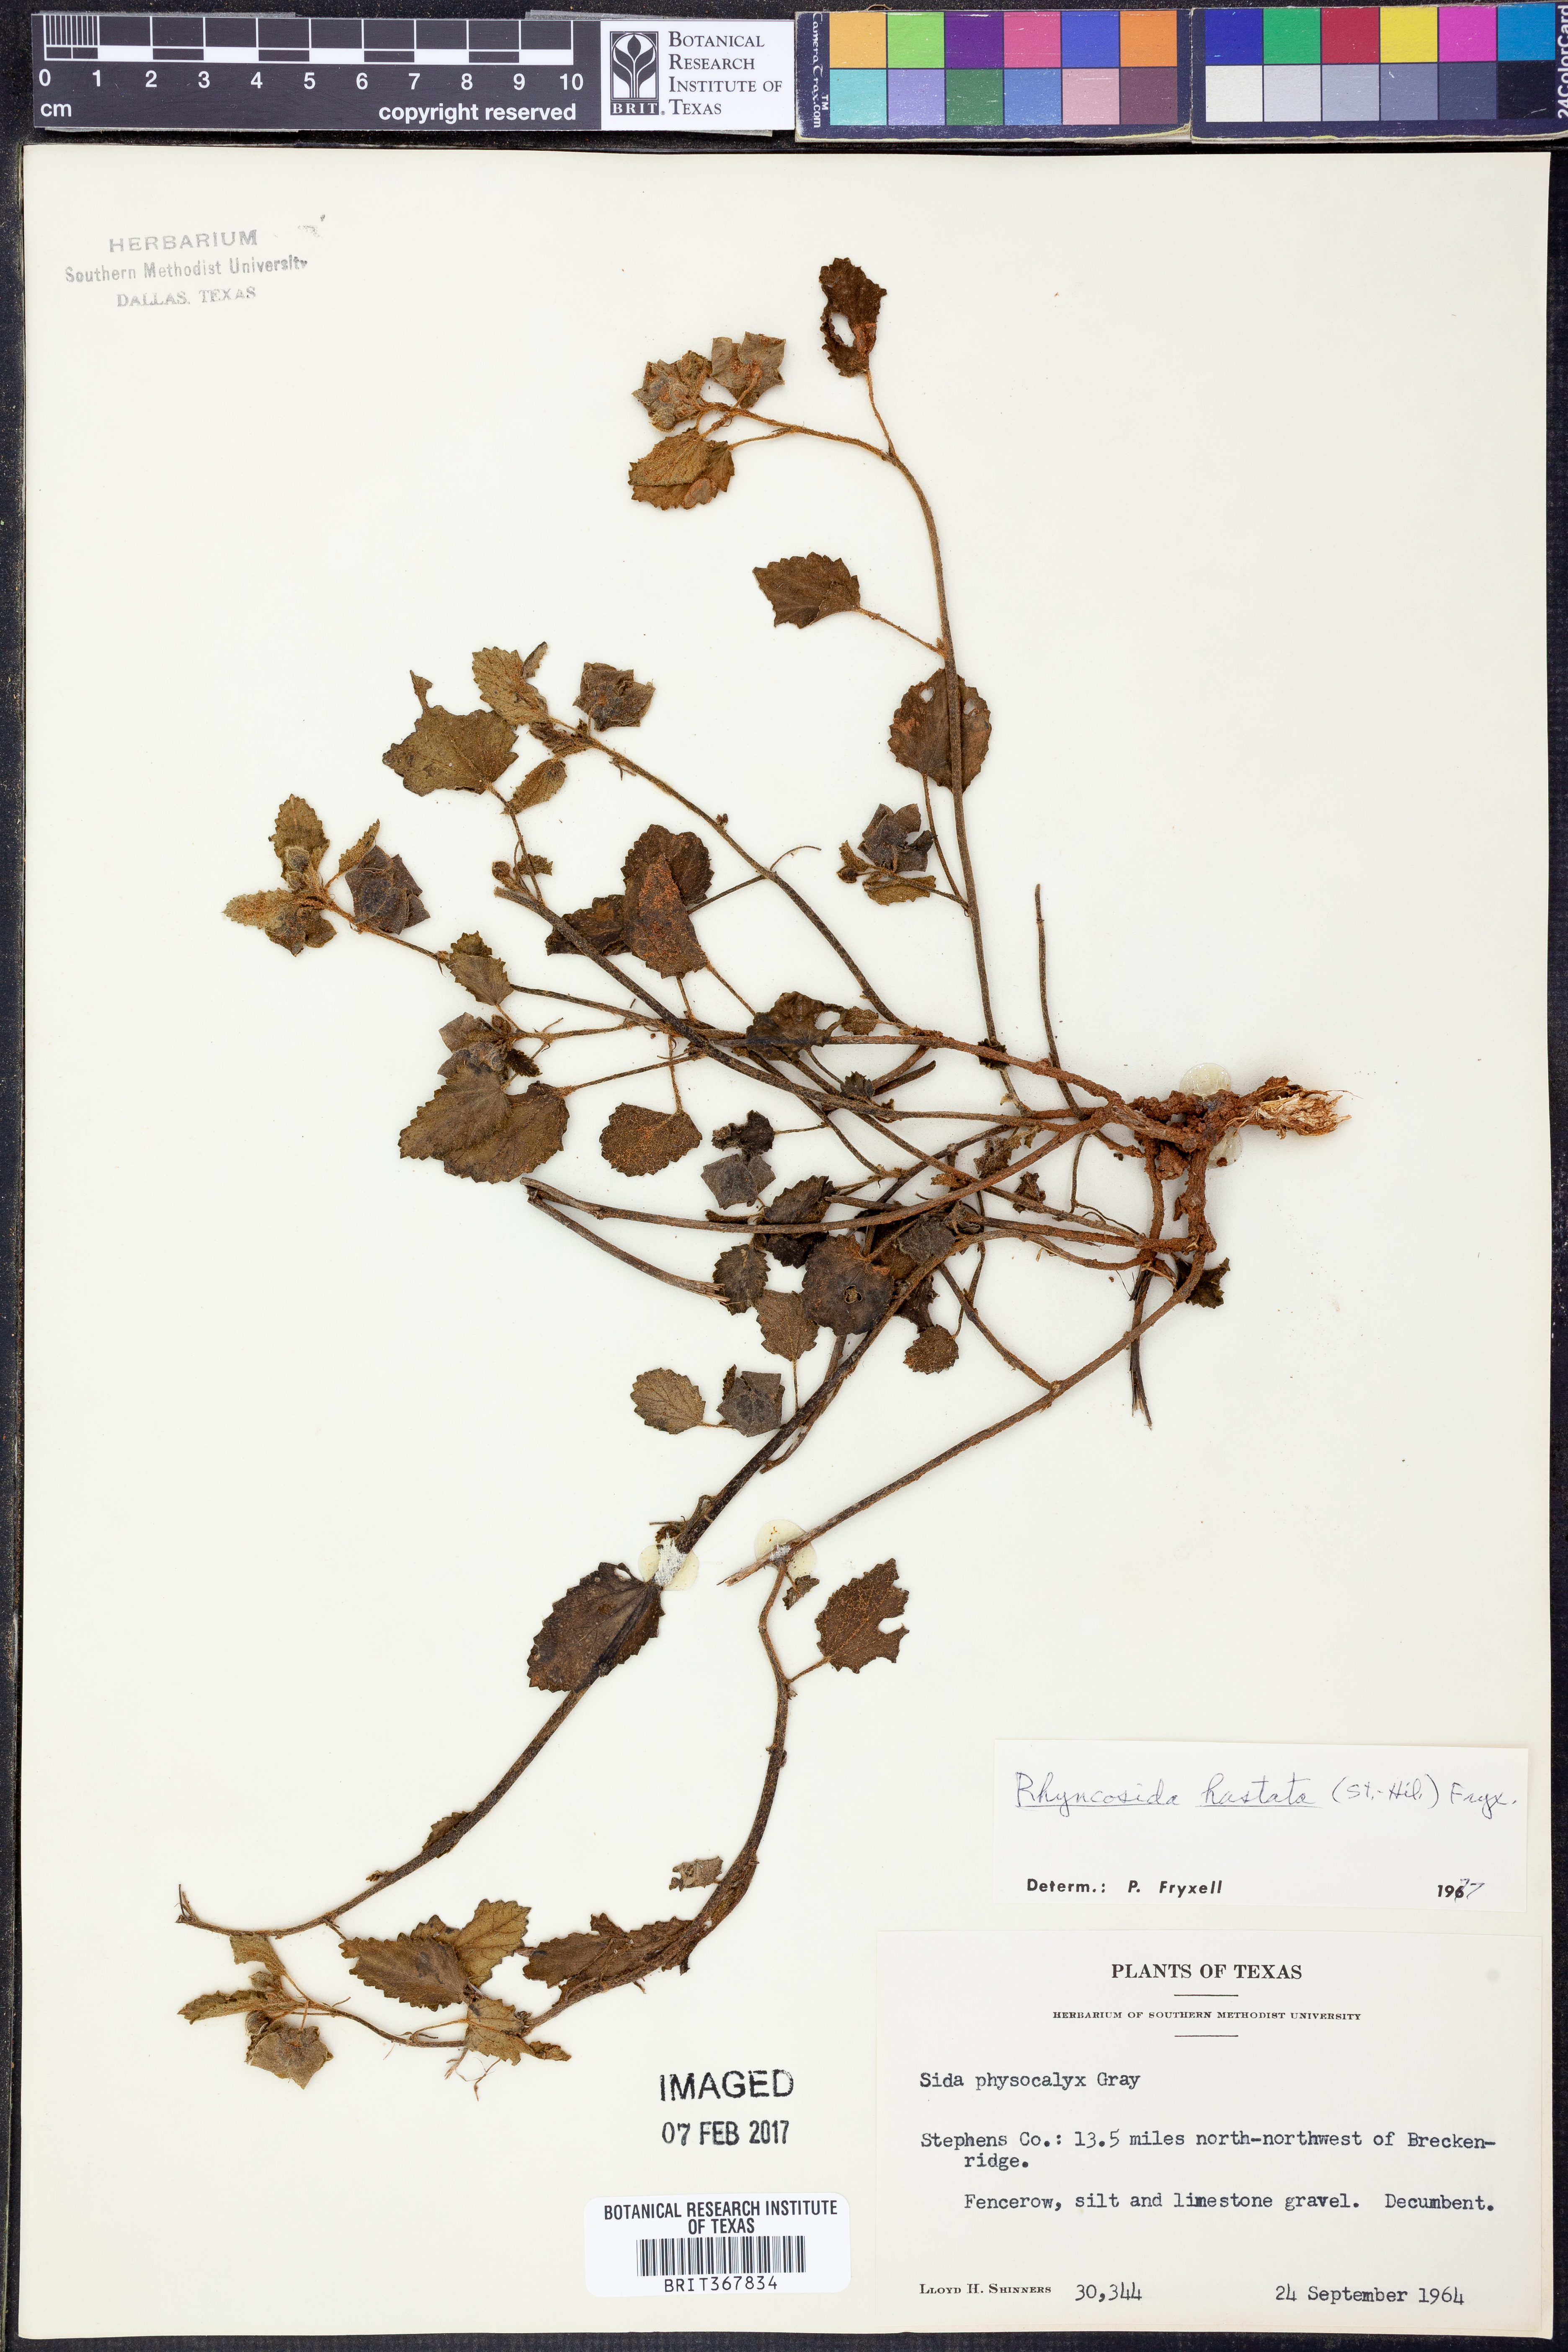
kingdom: Plantae
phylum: Tracheophyta
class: Magnoliopsida
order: Malvales
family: Malvaceae
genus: Rhynchosida
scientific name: Rhynchosida
